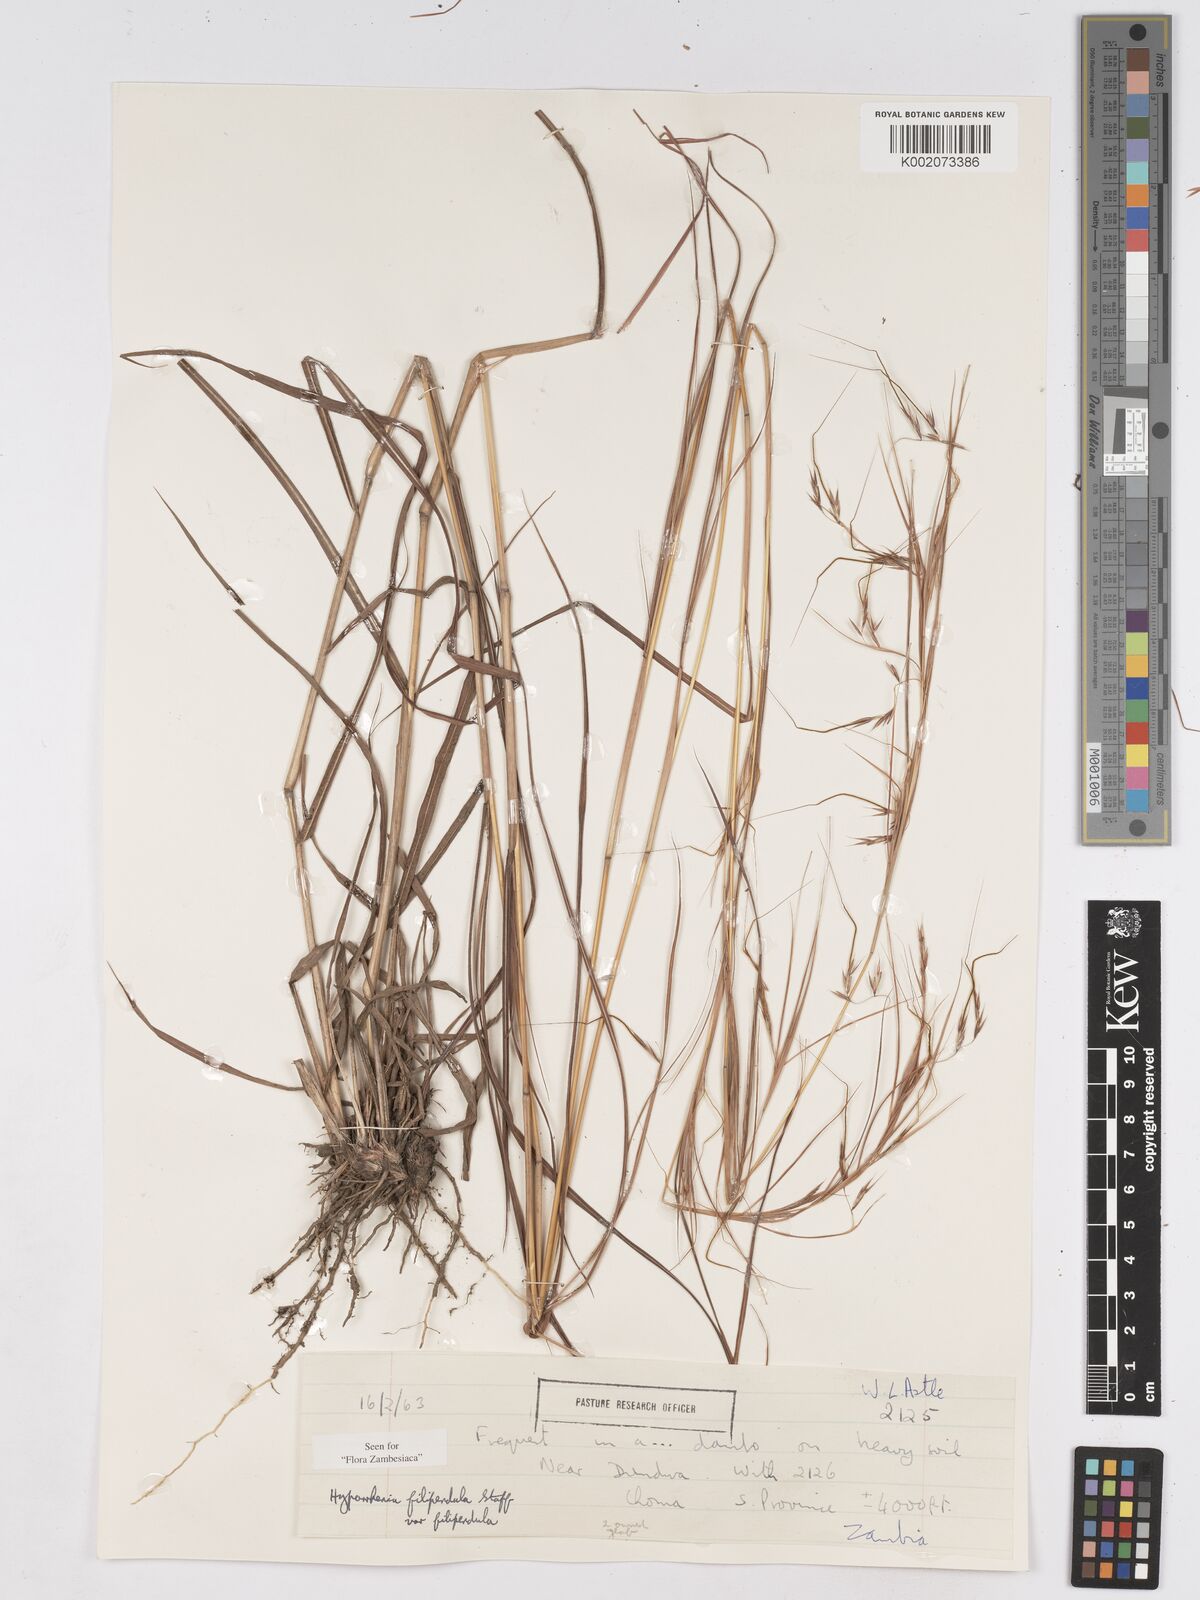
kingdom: Plantae
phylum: Tracheophyta
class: Liliopsida
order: Poales
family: Poaceae
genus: Hyparrhenia
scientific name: Hyparrhenia filipendula
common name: Tambookie grass
